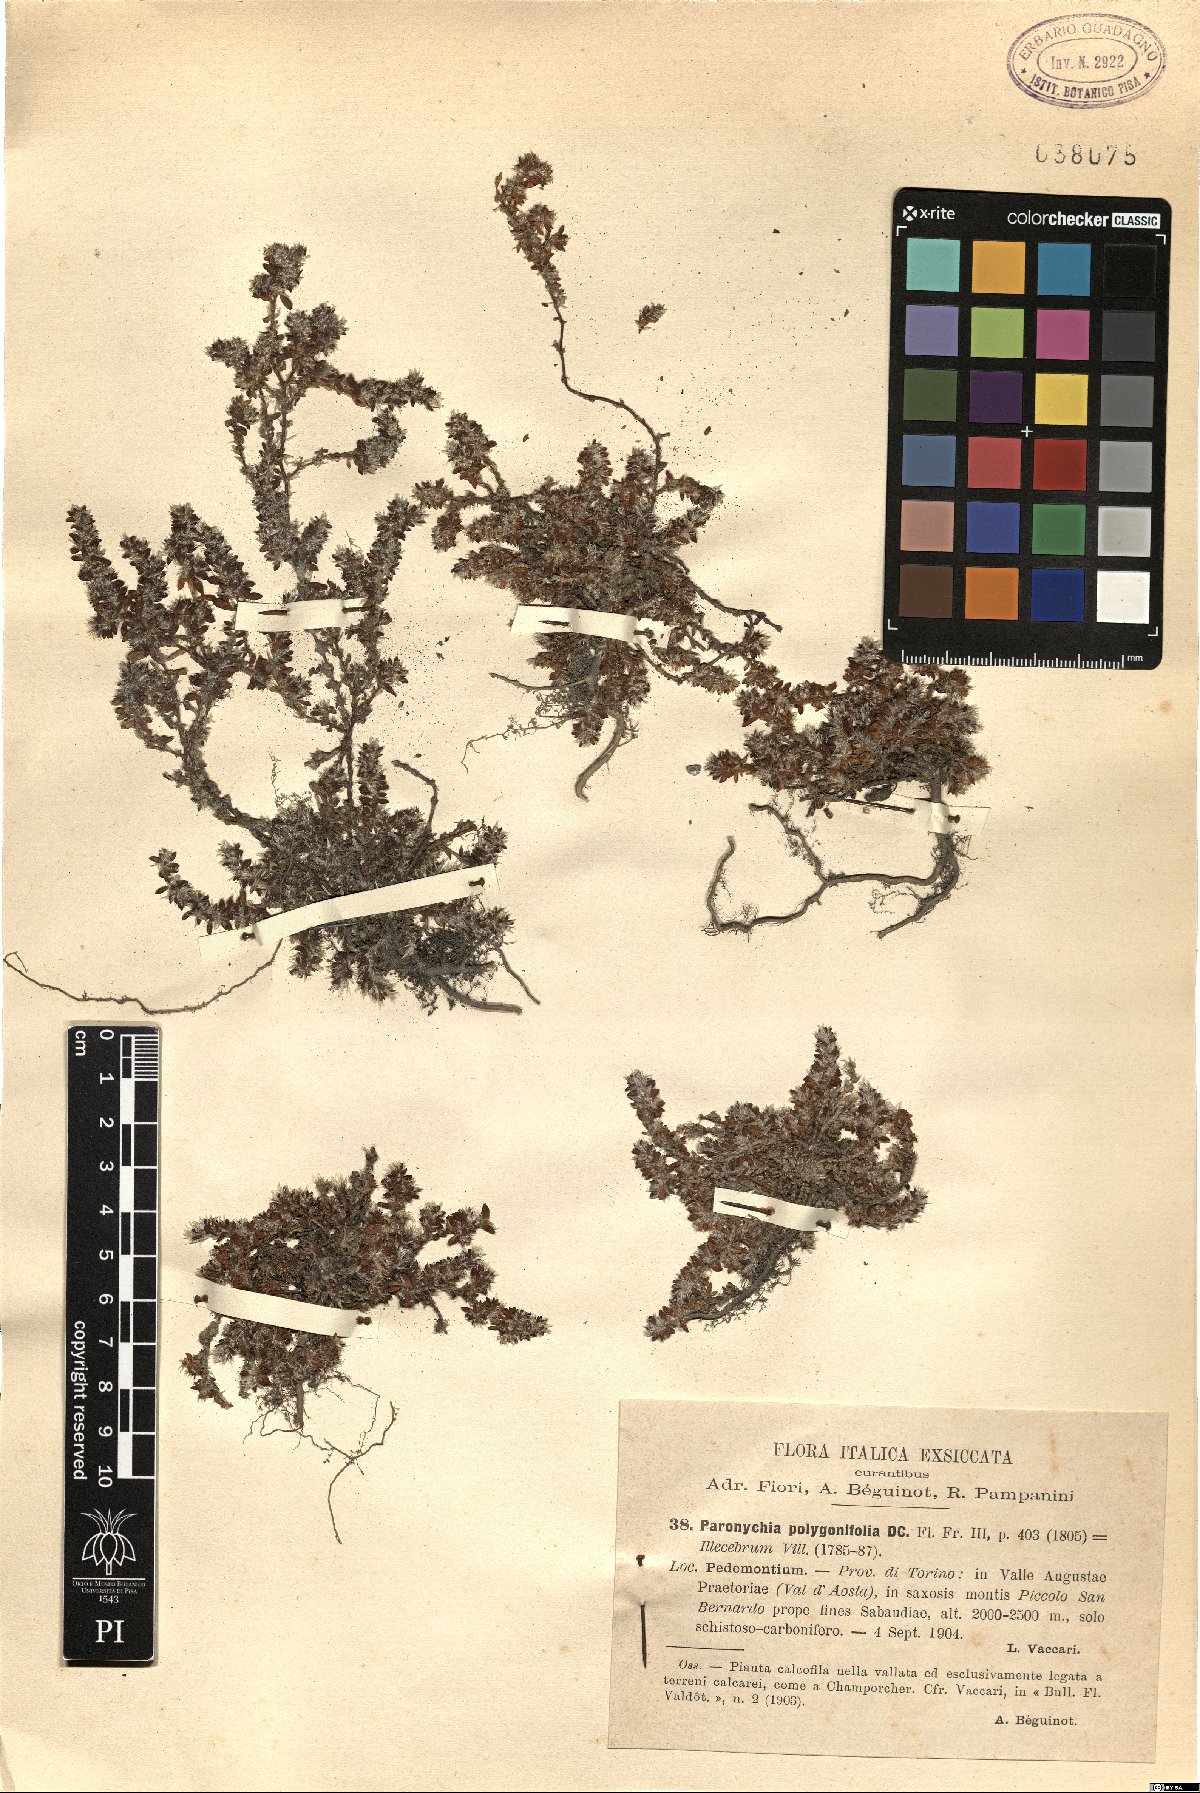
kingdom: Plantae
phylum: Tracheophyta
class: Magnoliopsida
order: Caryophyllales
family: Caryophyllaceae
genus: Paronychia
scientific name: Paronychia polygonifolia
